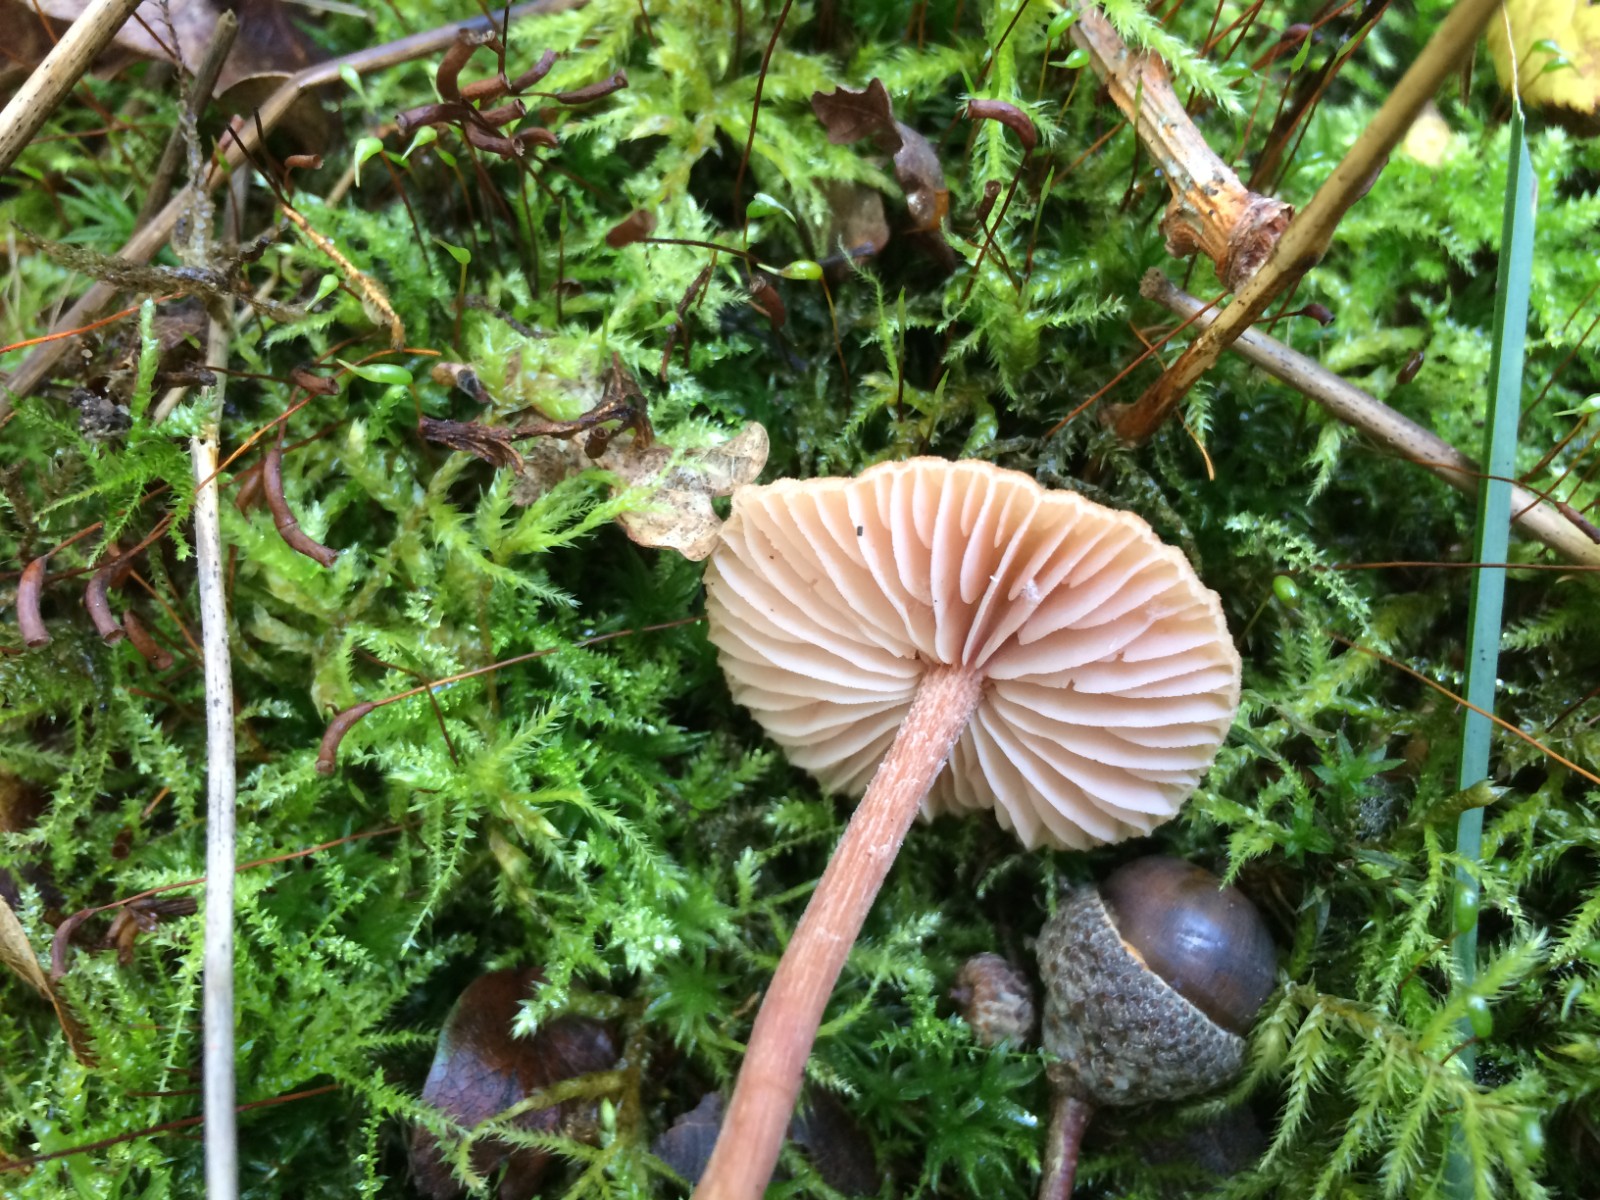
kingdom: Fungi
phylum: Basidiomycota
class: Agaricomycetes
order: Agaricales
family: Hydnangiaceae
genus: Laccaria
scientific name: Laccaria laccata
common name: rød ametysthat
